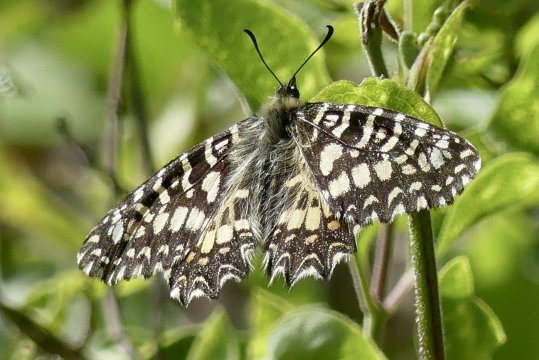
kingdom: Animalia
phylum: Arthropoda
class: Insecta
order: Lepidoptera
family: Papilionidae
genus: Zerynthia
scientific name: Zerynthia rumina
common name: Spanish Festoon
